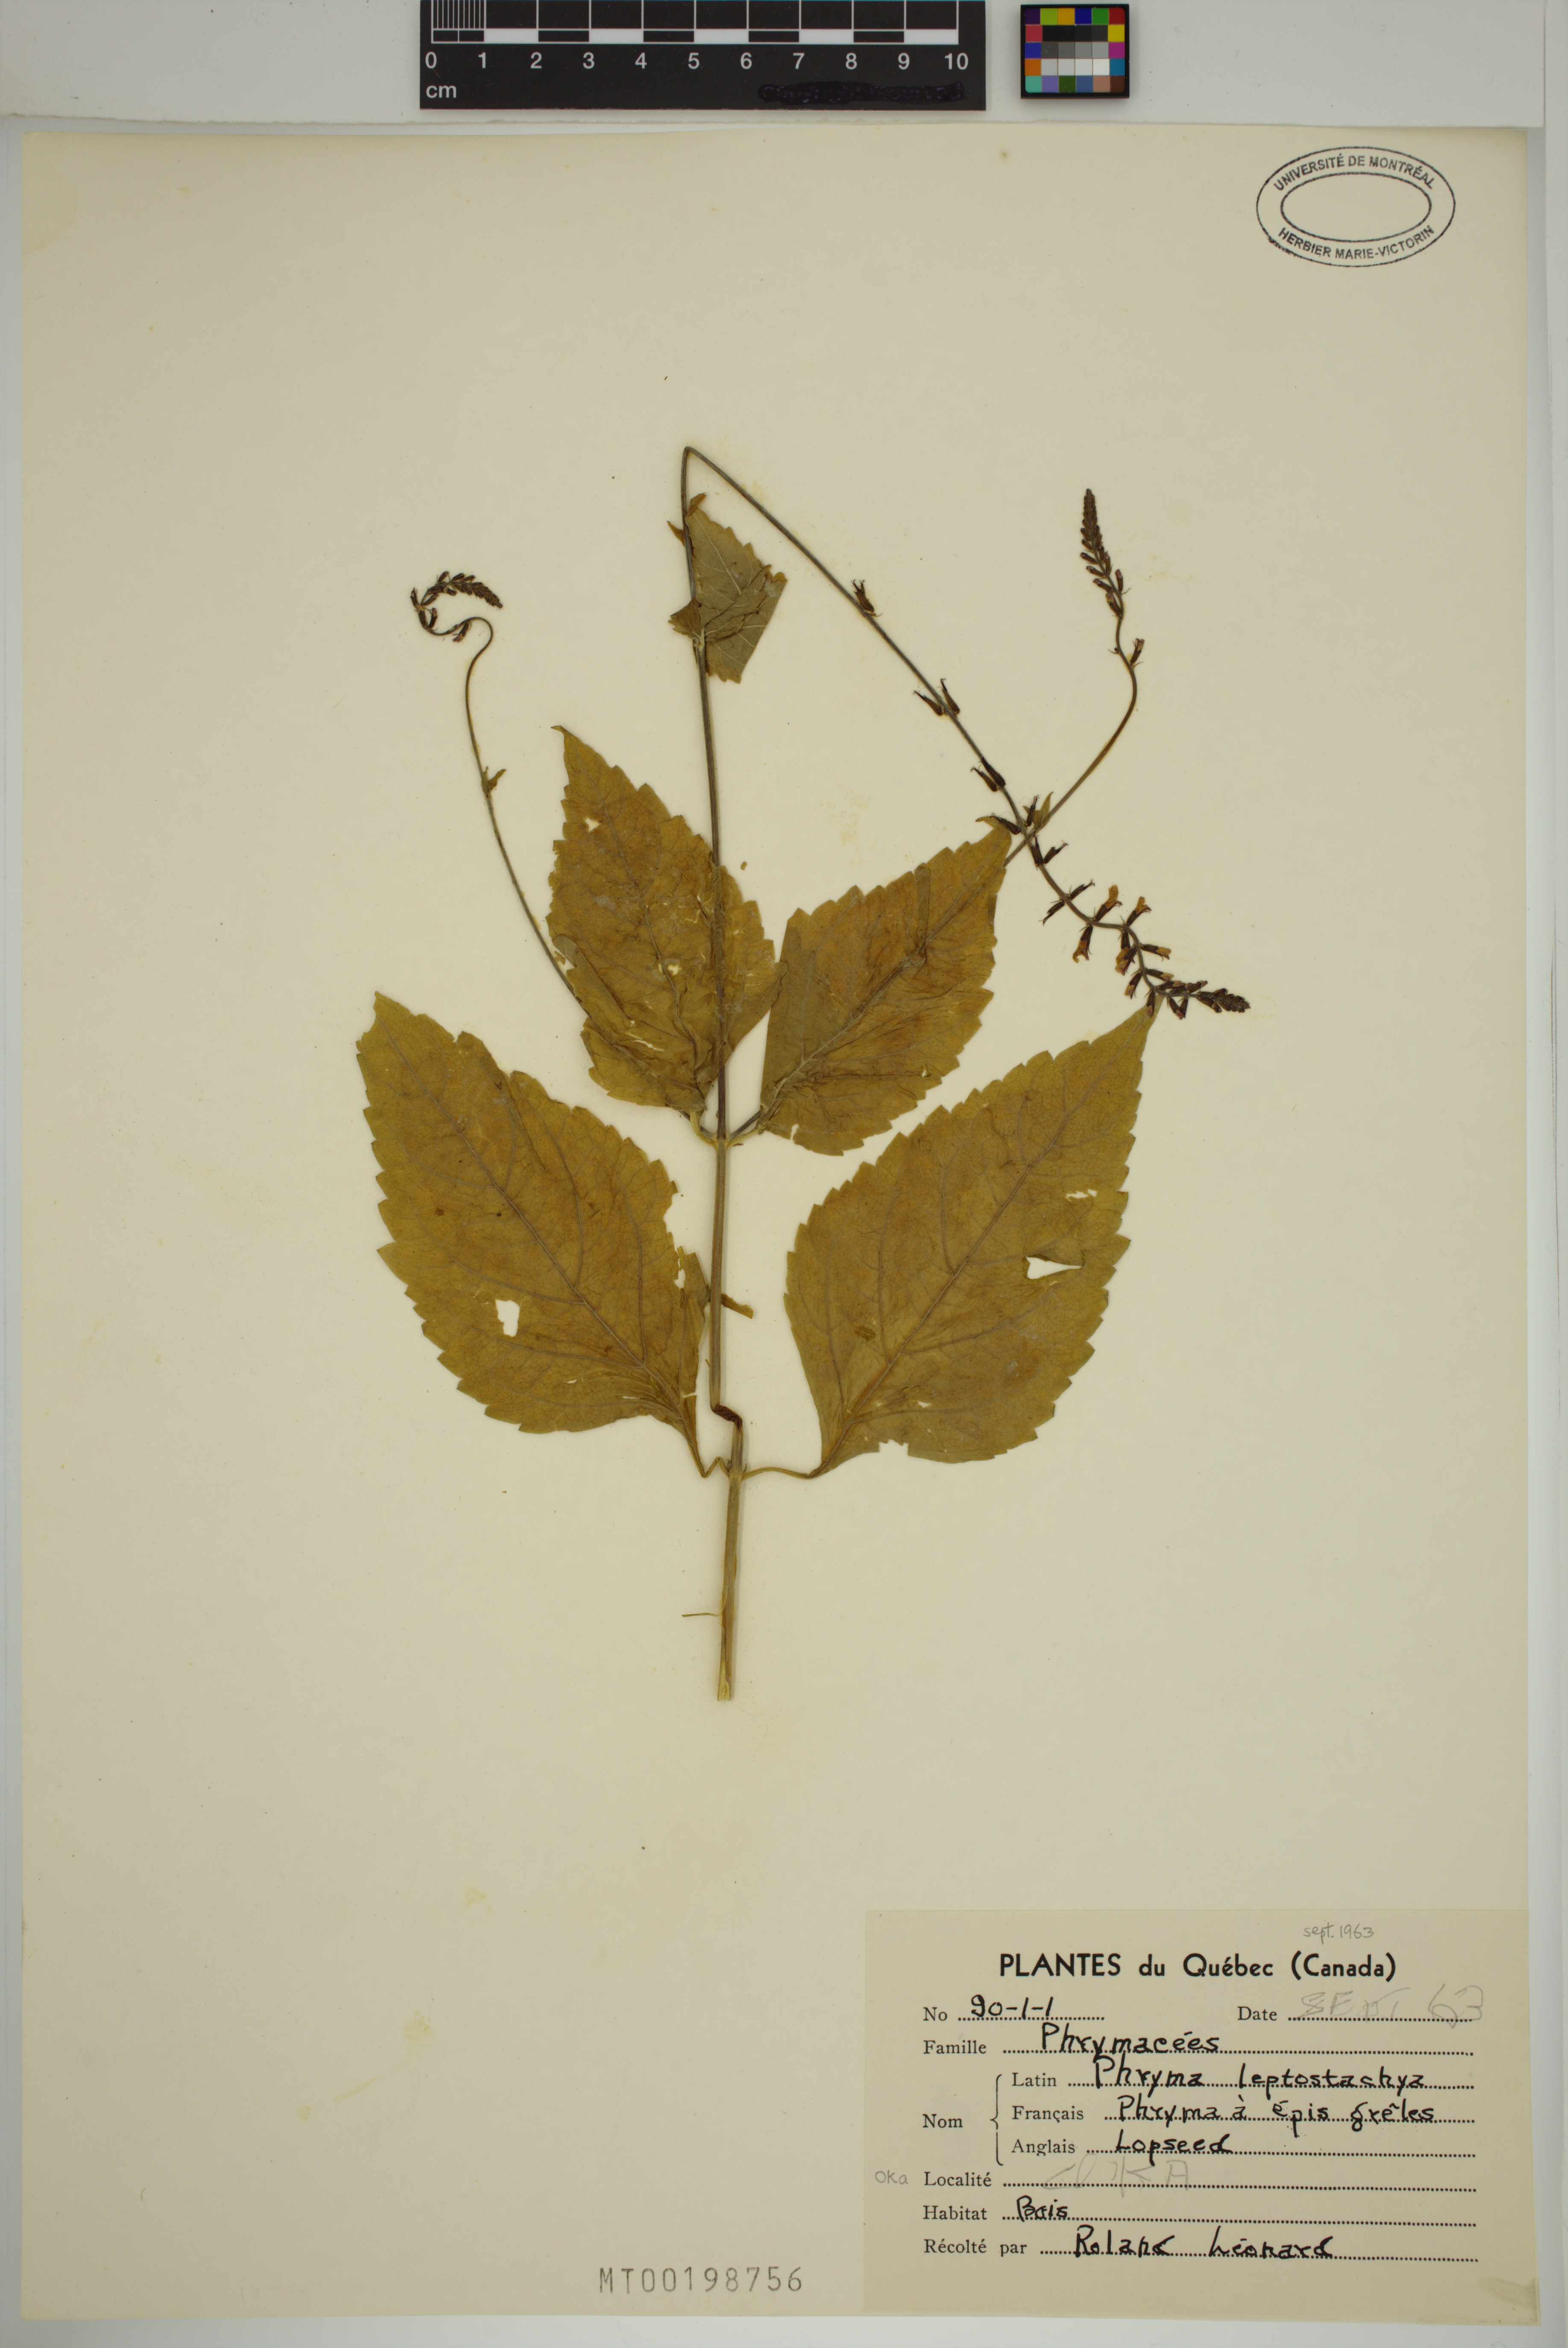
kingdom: Plantae
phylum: Tracheophyta
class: Magnoliopsida
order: Lamiales
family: Phrymaceae
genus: Phryma
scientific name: Phryma leptostachya
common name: American lopseed
